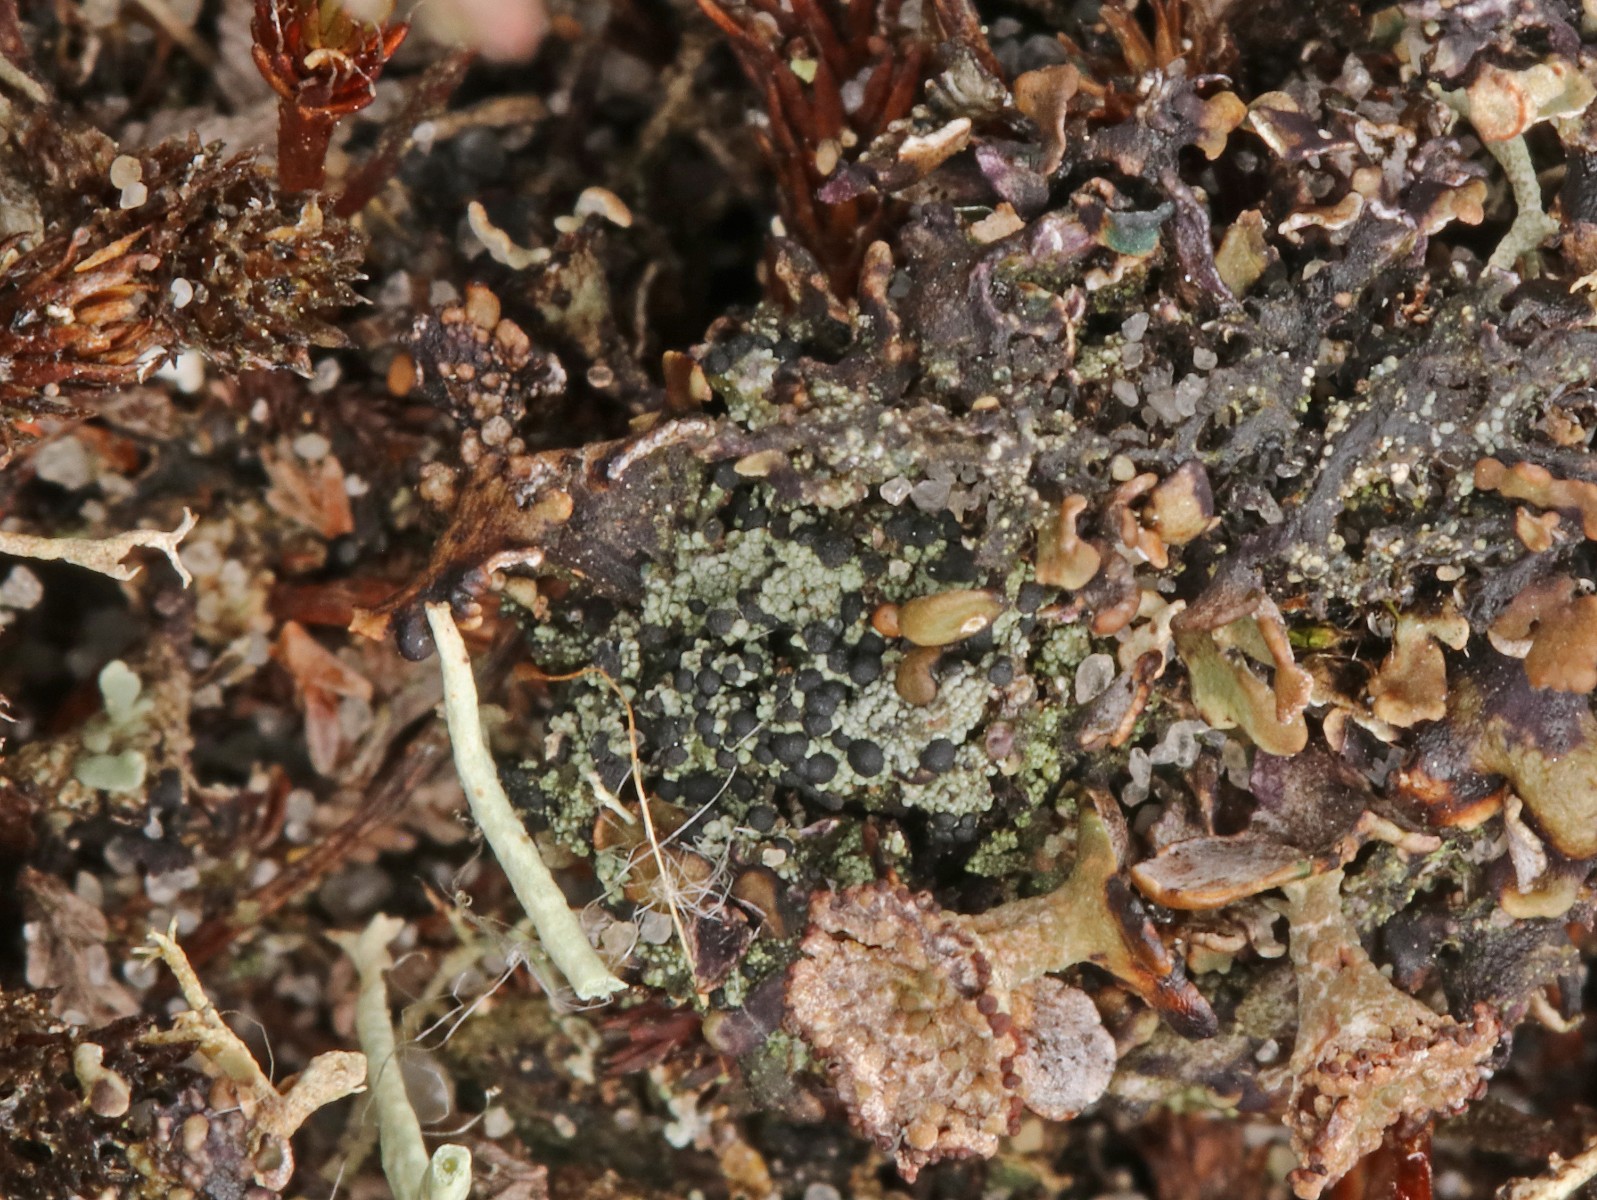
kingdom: Fungi
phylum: Ascomycota
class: Lecanoromycetes
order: Lecanorales
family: Byssolomataceae
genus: Micarea
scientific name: Micarea lignaria
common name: tørve-knaplav
